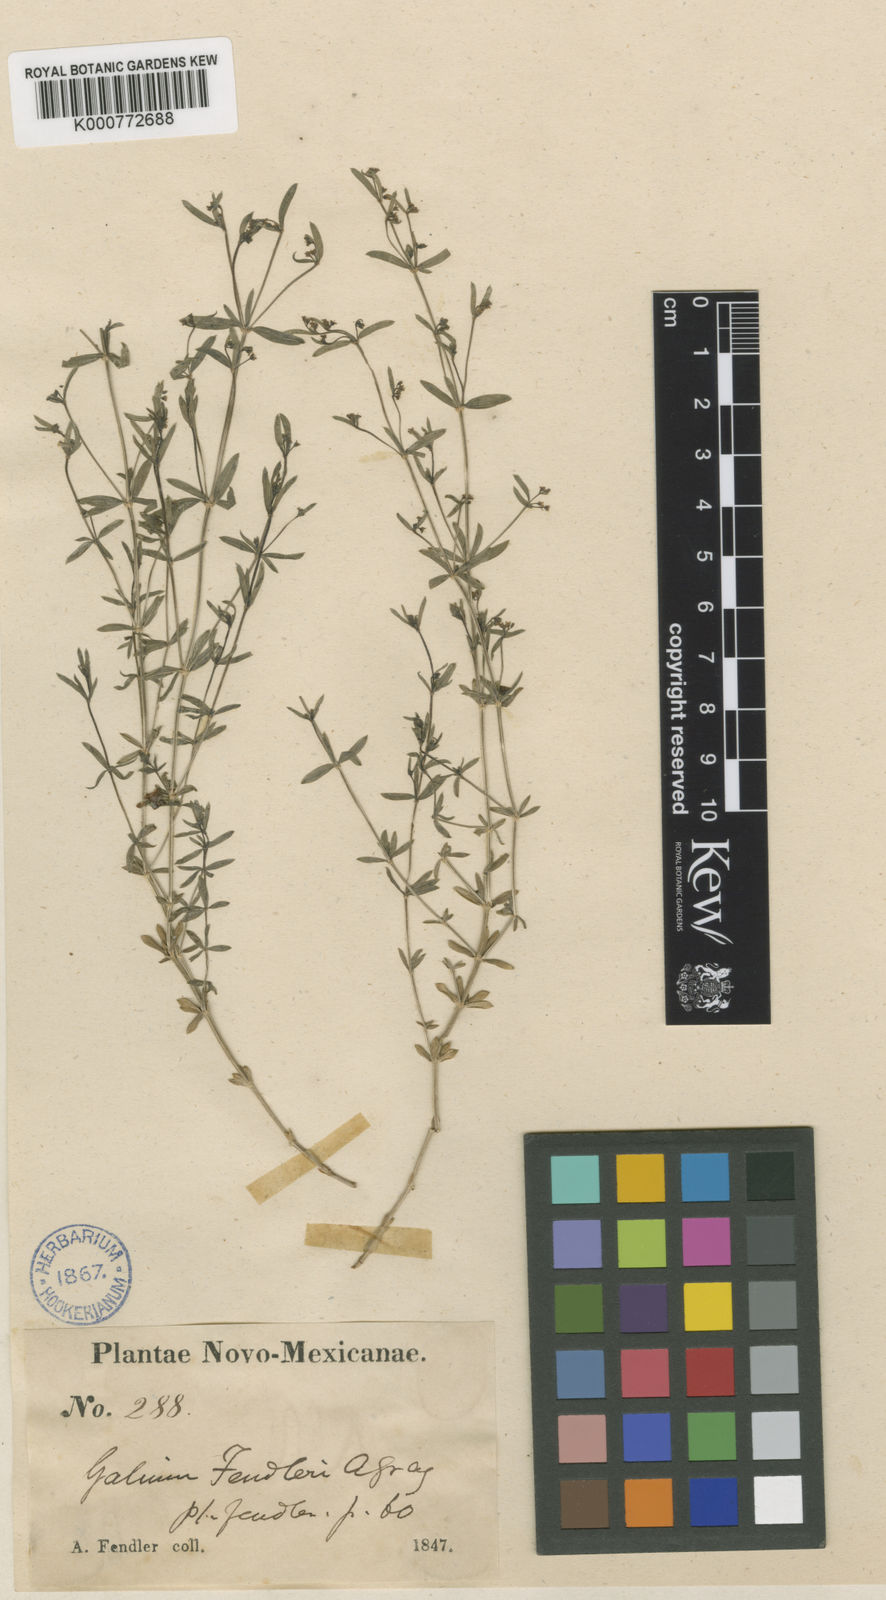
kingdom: Plantae
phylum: Tracheophyta
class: Magnoliopsida
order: Gentianales
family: Rubiaceae
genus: Galium
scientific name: Galium fendleri
